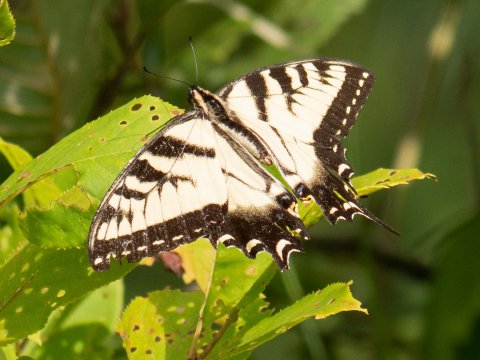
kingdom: Animalia
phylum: Arthropoda
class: Insecta
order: Lepidoptera
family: Papilionidae
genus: Pterourus
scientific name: Pterourus
